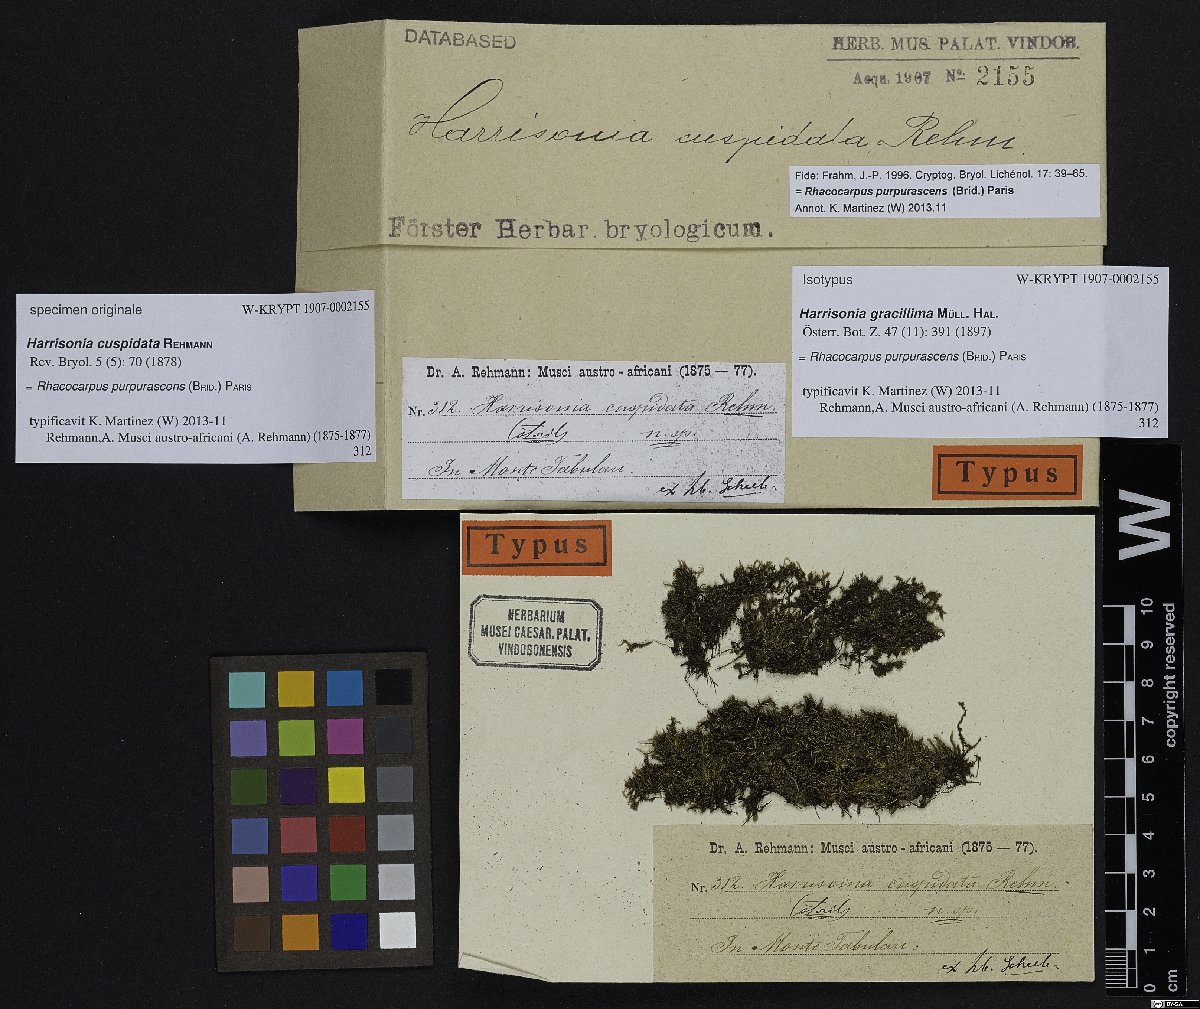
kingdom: Plantae
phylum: Bryophyta
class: Bryopsida
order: Hedwigiales
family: Hedwigiaceae
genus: Rhacocarpus
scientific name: Rhacocarpus purpurascens
